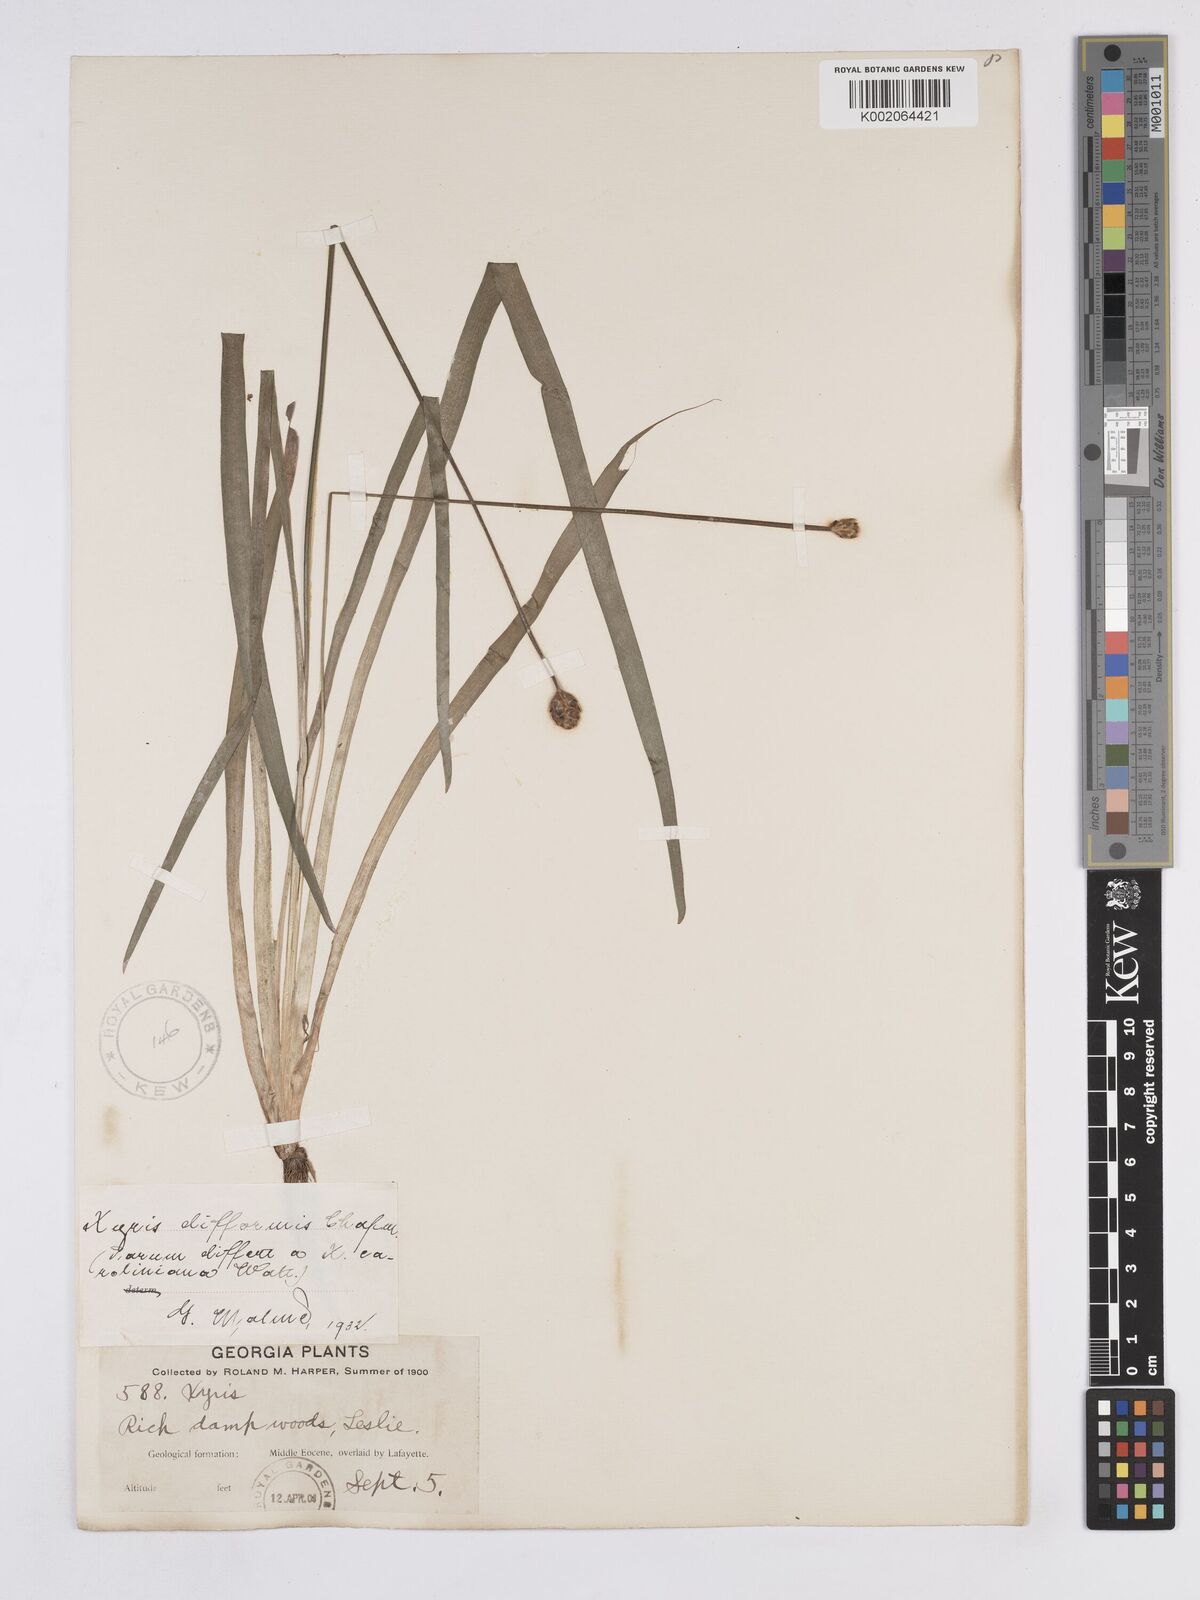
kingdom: Plantae
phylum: Tracheophyta
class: Liliopsida
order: Poales
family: Xyridaceae
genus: Xyris
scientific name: Xyris difformis
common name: Bog yellow-eyed-grass
